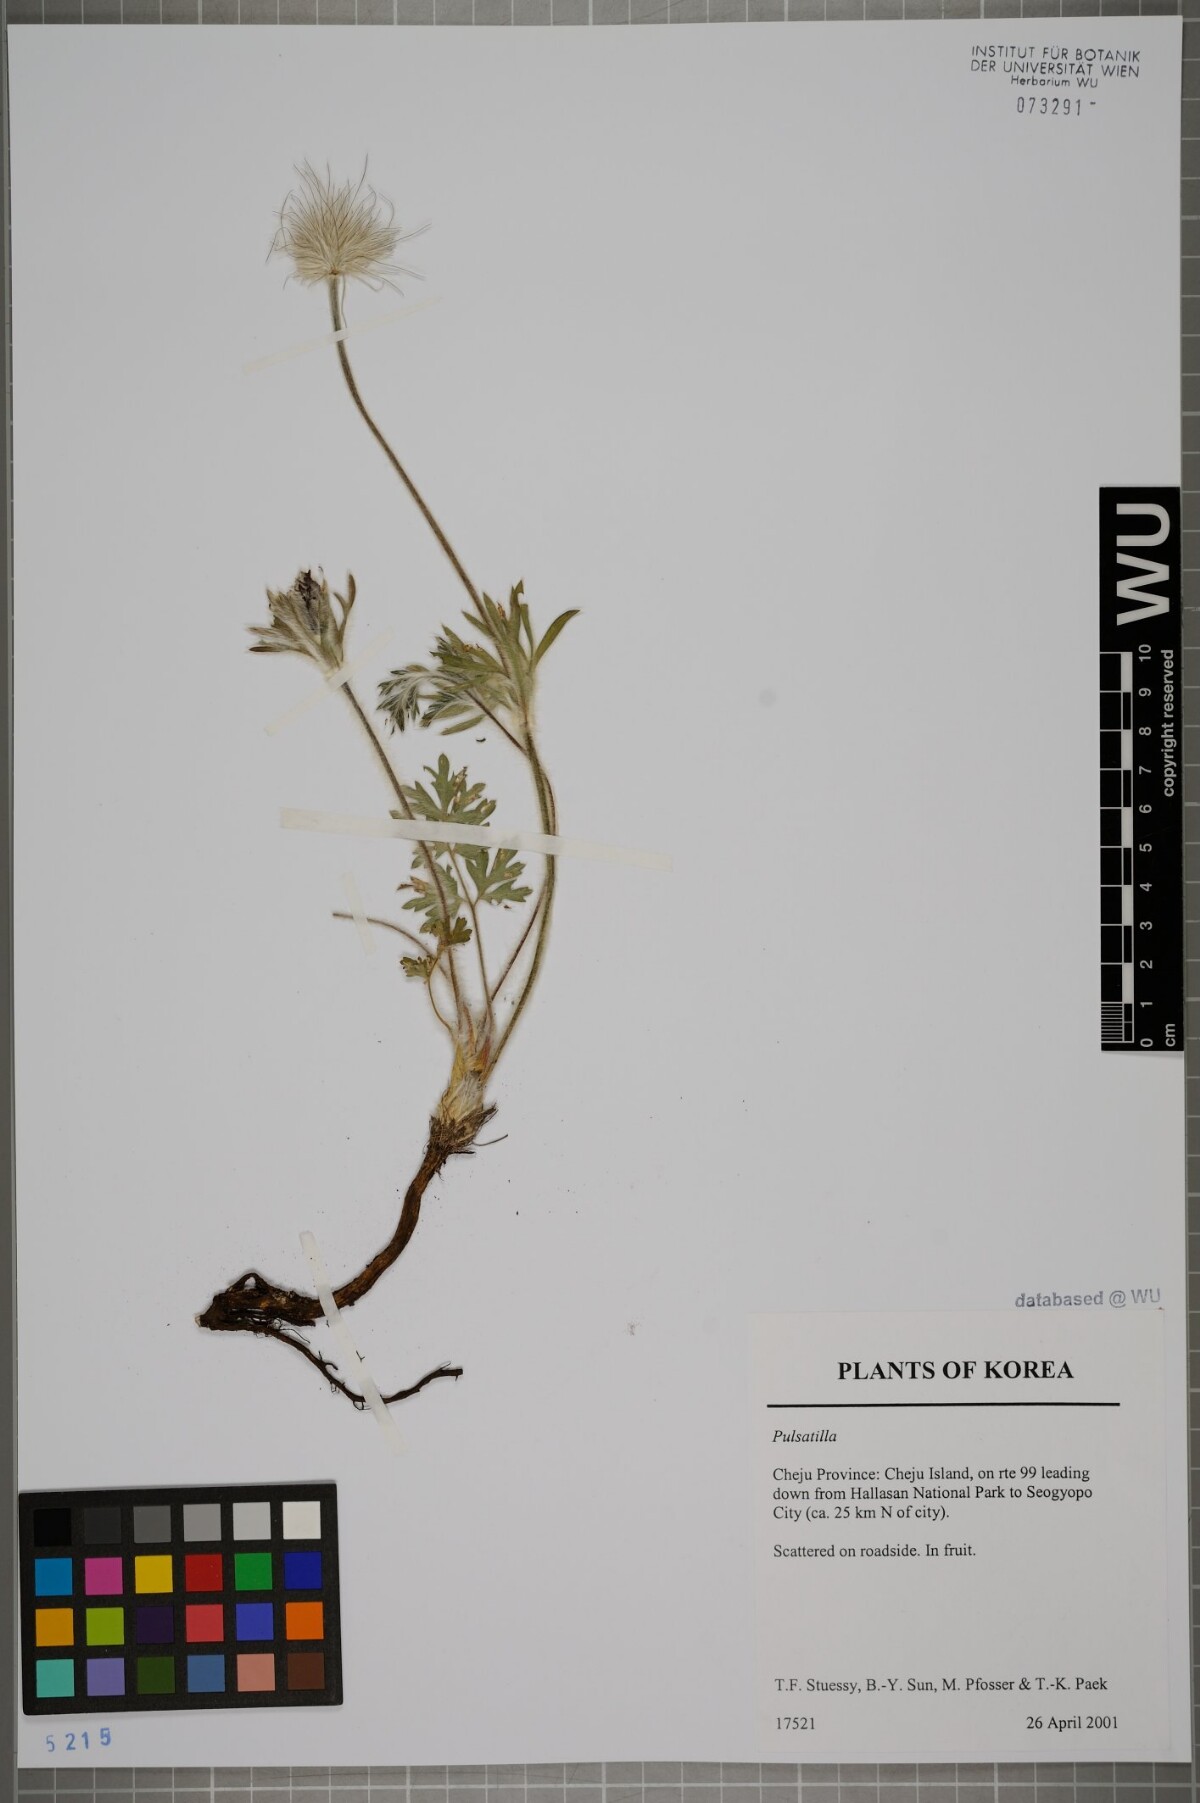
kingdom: Plantae
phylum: Tracheophyta
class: Magnoliopsida
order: Ranunculales
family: Ranunculaceae
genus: Pulsatilla
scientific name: Pulsatilla
